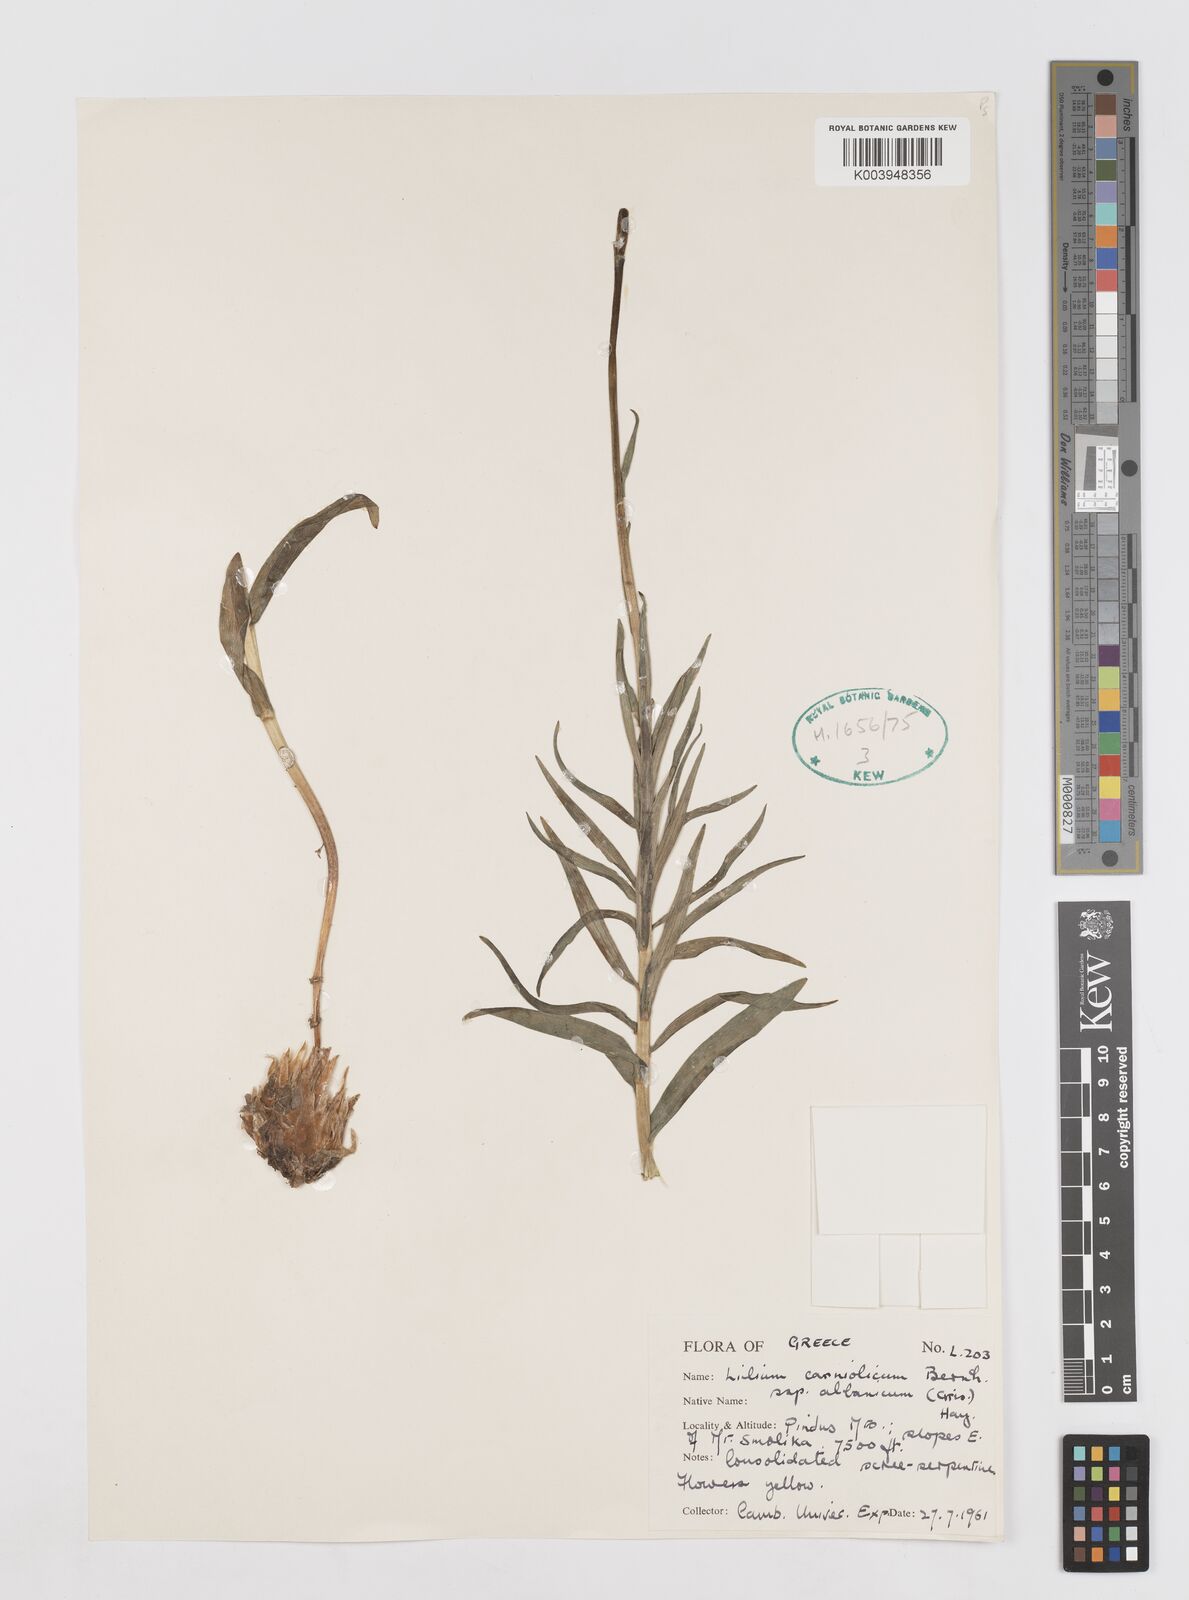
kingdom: Plantae
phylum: Tracheophyta
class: Liliopsida
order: Liliales
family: Liliaceae
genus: Lilium
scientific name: Lilium albanicum
